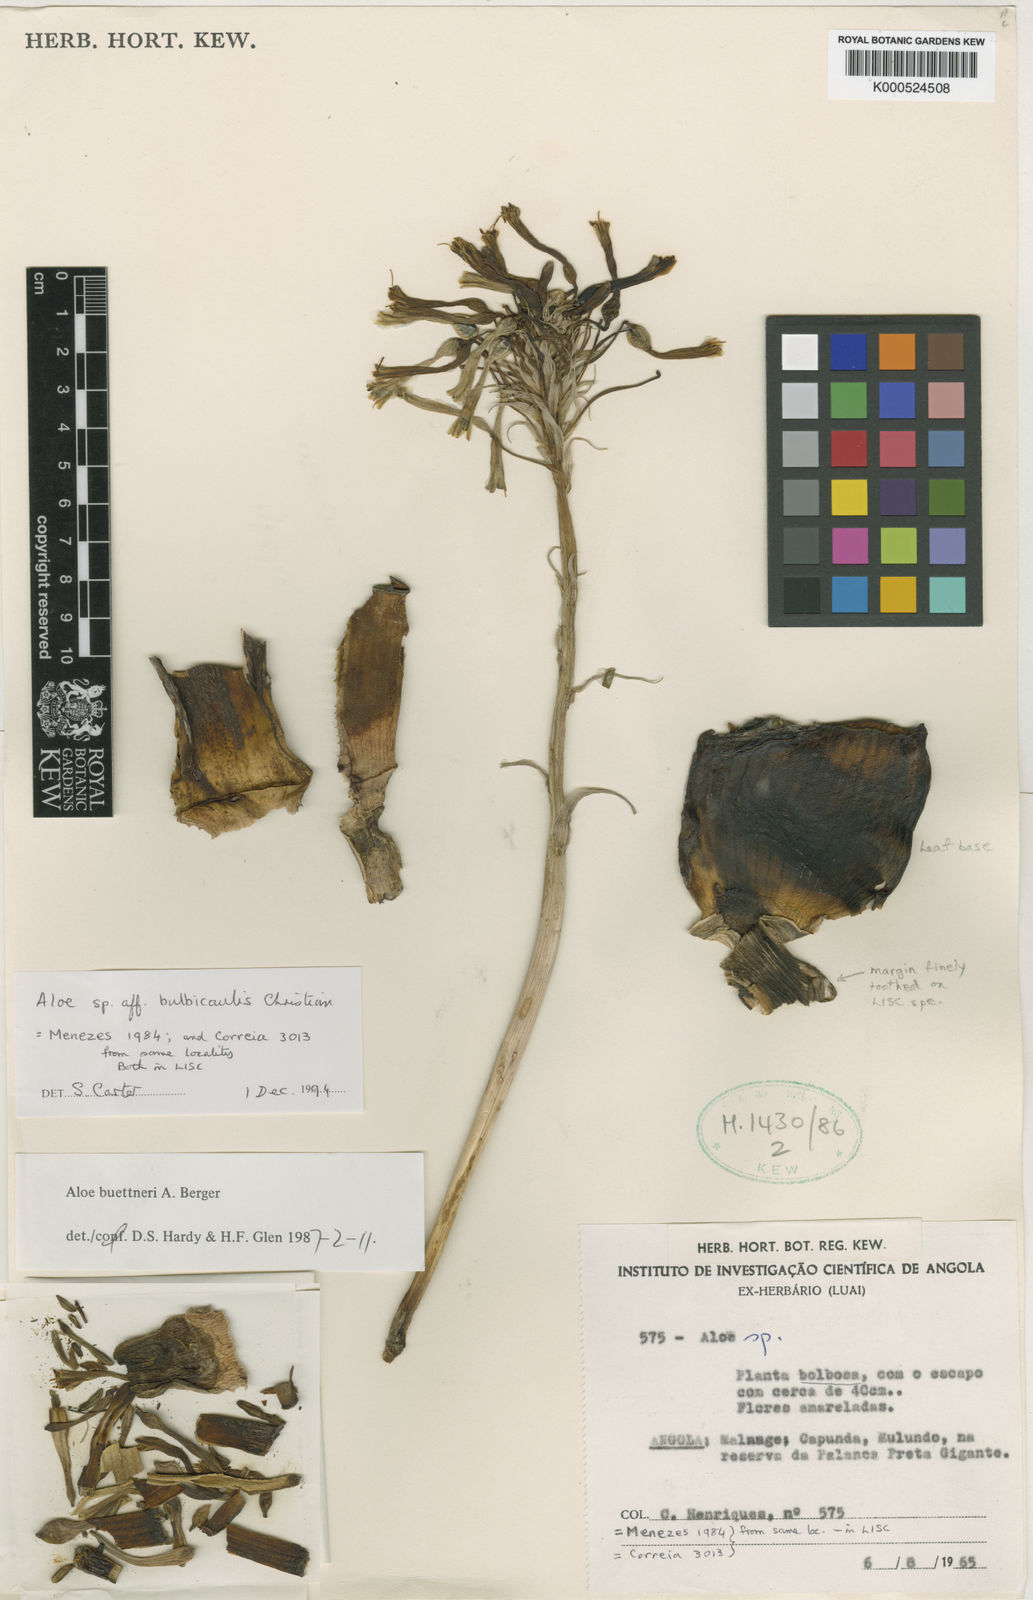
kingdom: Plantae
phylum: Tracheophyta
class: Liliopsida
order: Asparagales
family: Asphodelaceae
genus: Aloe
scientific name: Aloe bulbicaulis
